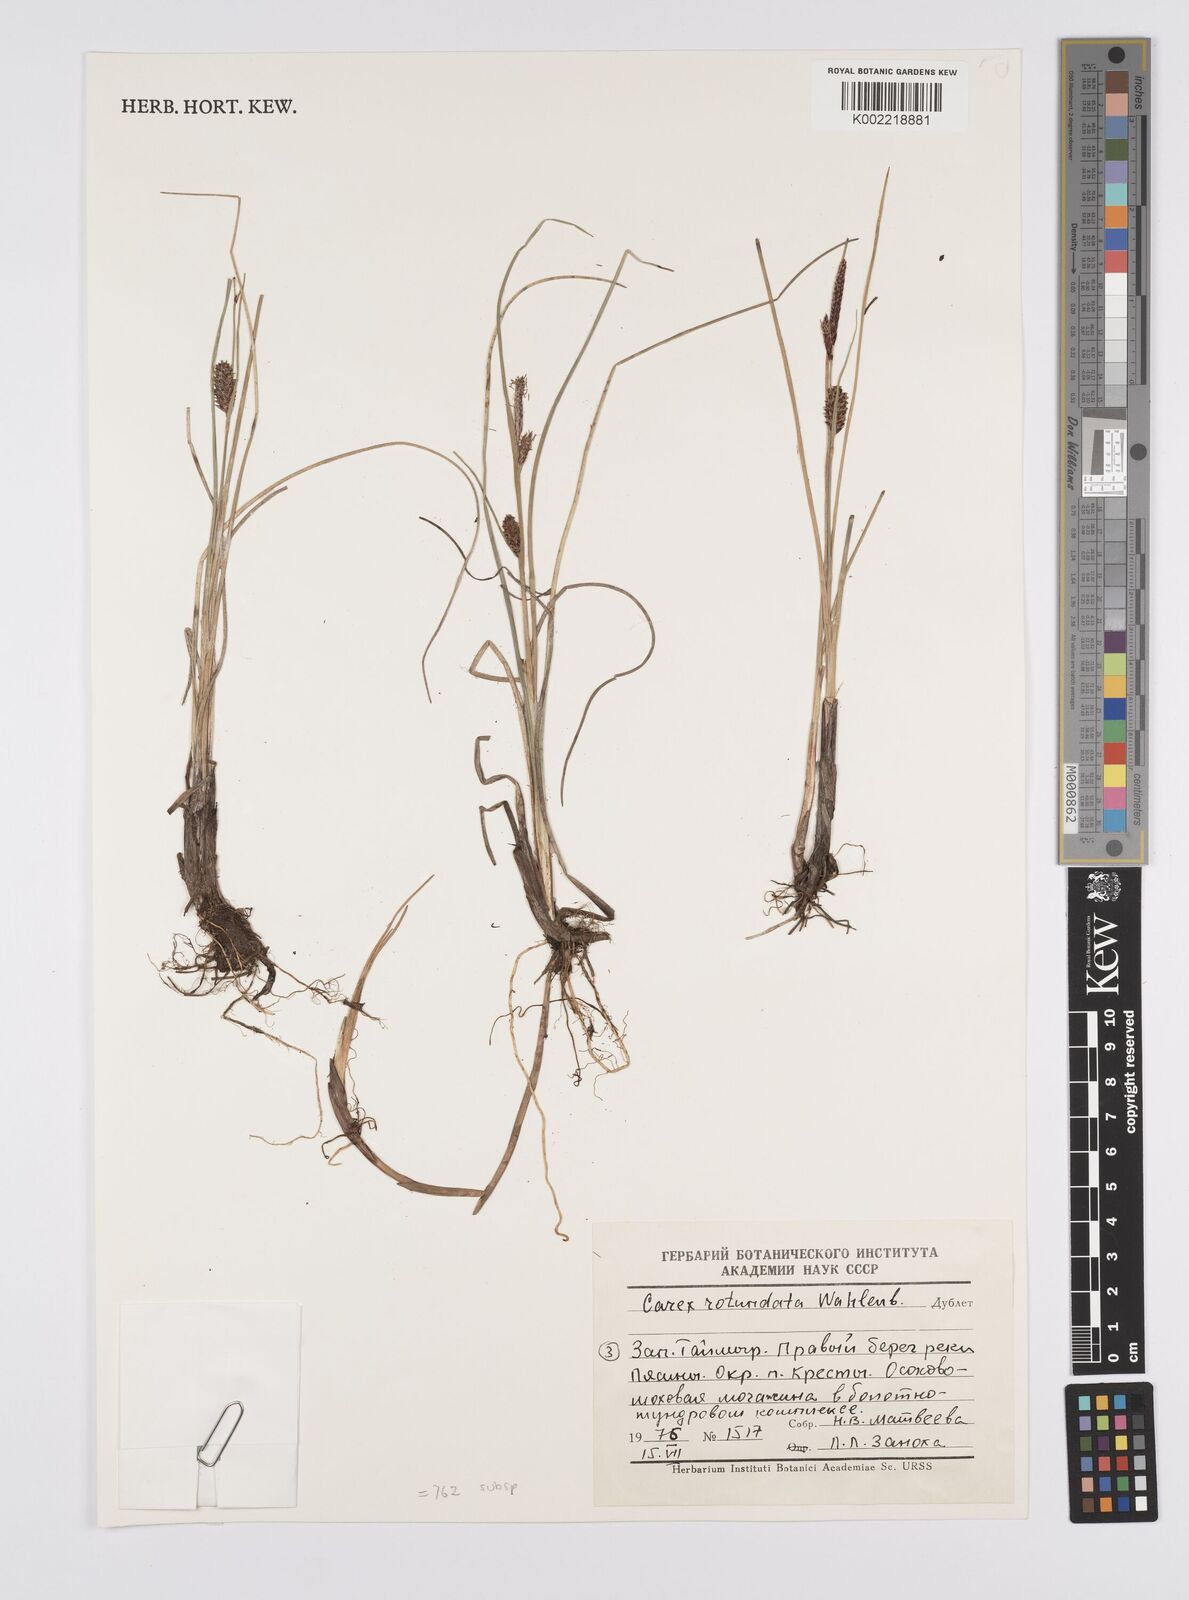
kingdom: Plantae
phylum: Tracheophyta
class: Liliopsida
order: Poales
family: Cyperaceae
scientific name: Cyperaceae
